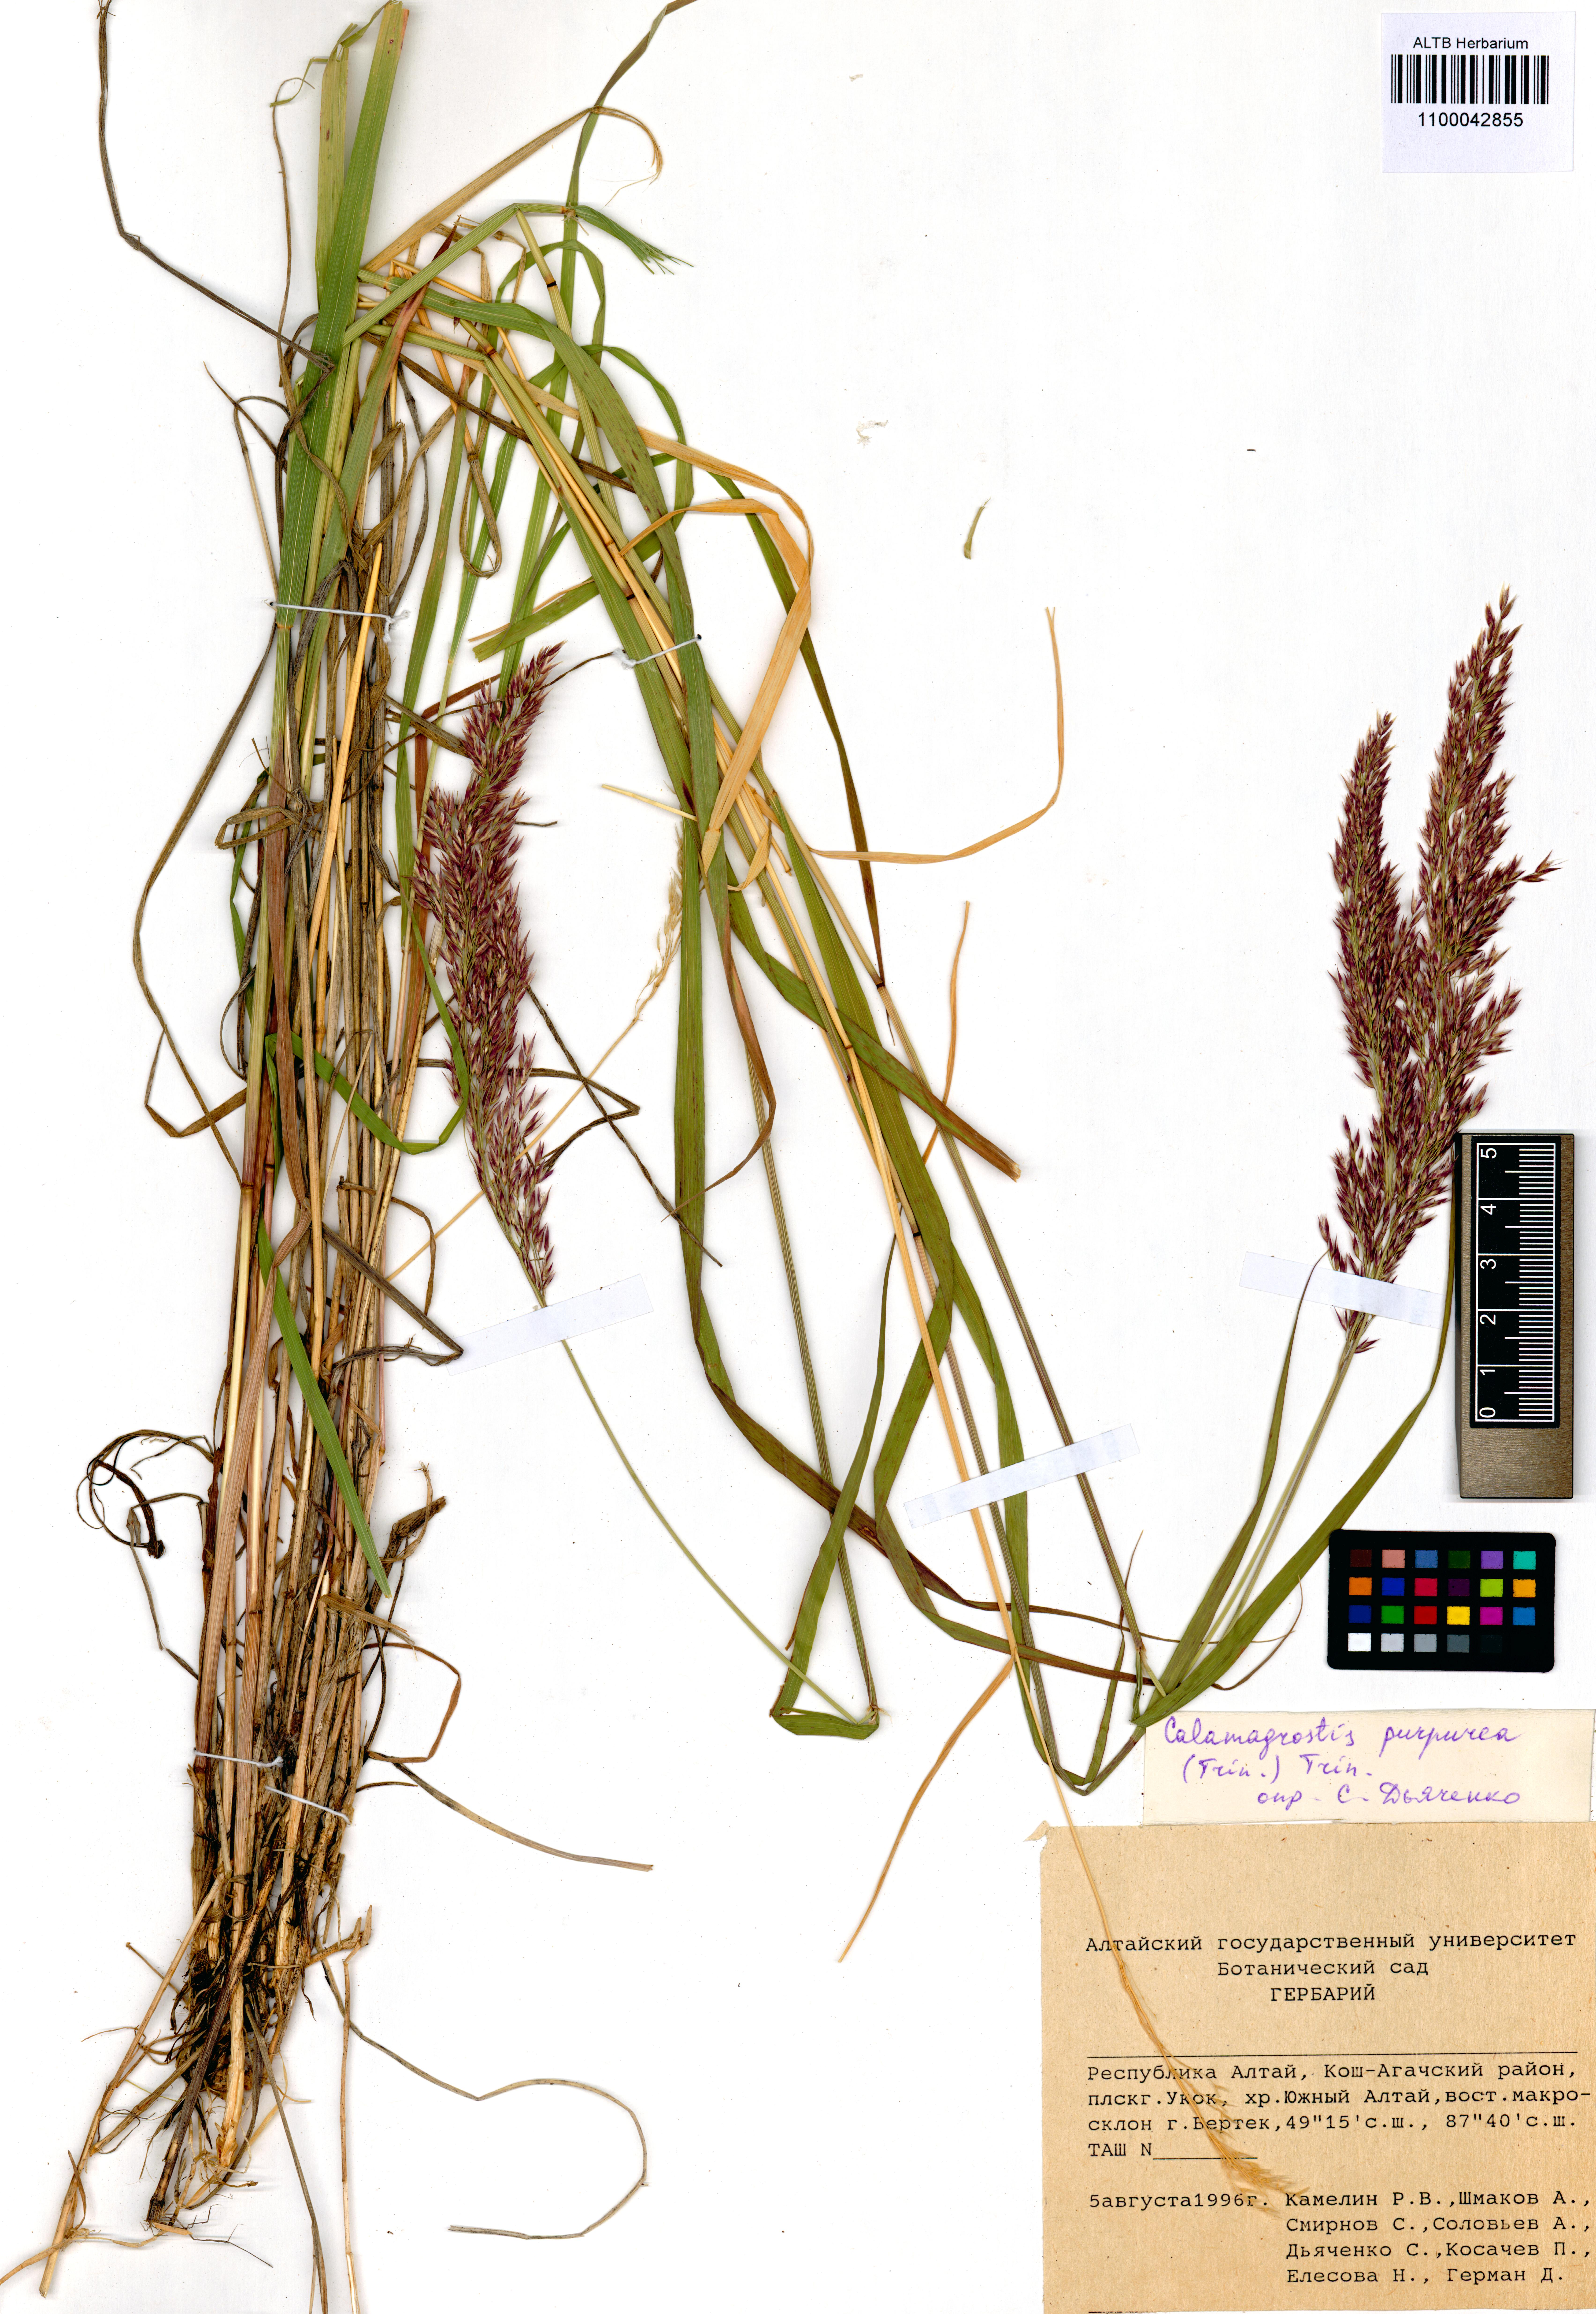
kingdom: Plantae
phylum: Tracheophyta
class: Liliopsida
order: Poales
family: Poaceae
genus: Calamagrostis
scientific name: Calamagrostis purpurea
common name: Scandinavian small-reed
